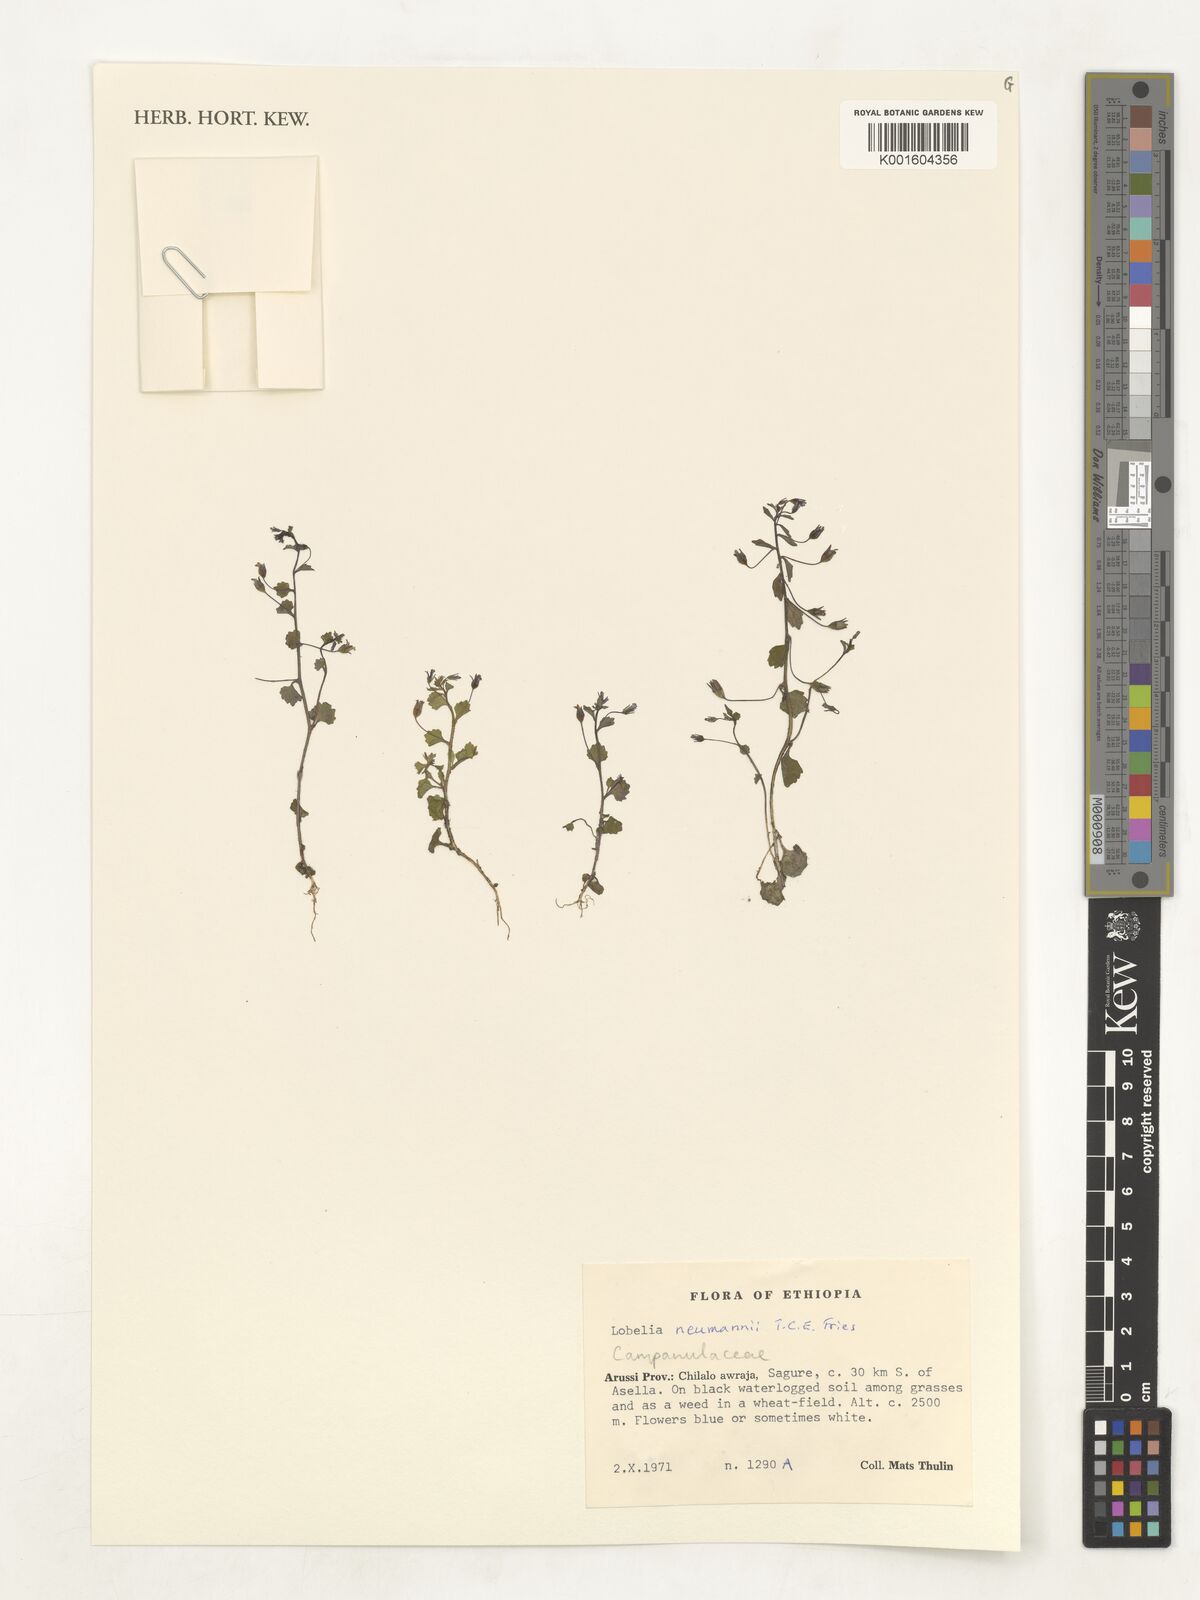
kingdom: Plantae
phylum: Tracheophyta
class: Magnoliopsida
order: Asterales
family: Campanulaceae
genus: Lobelia
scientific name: Lobelia neumannii
